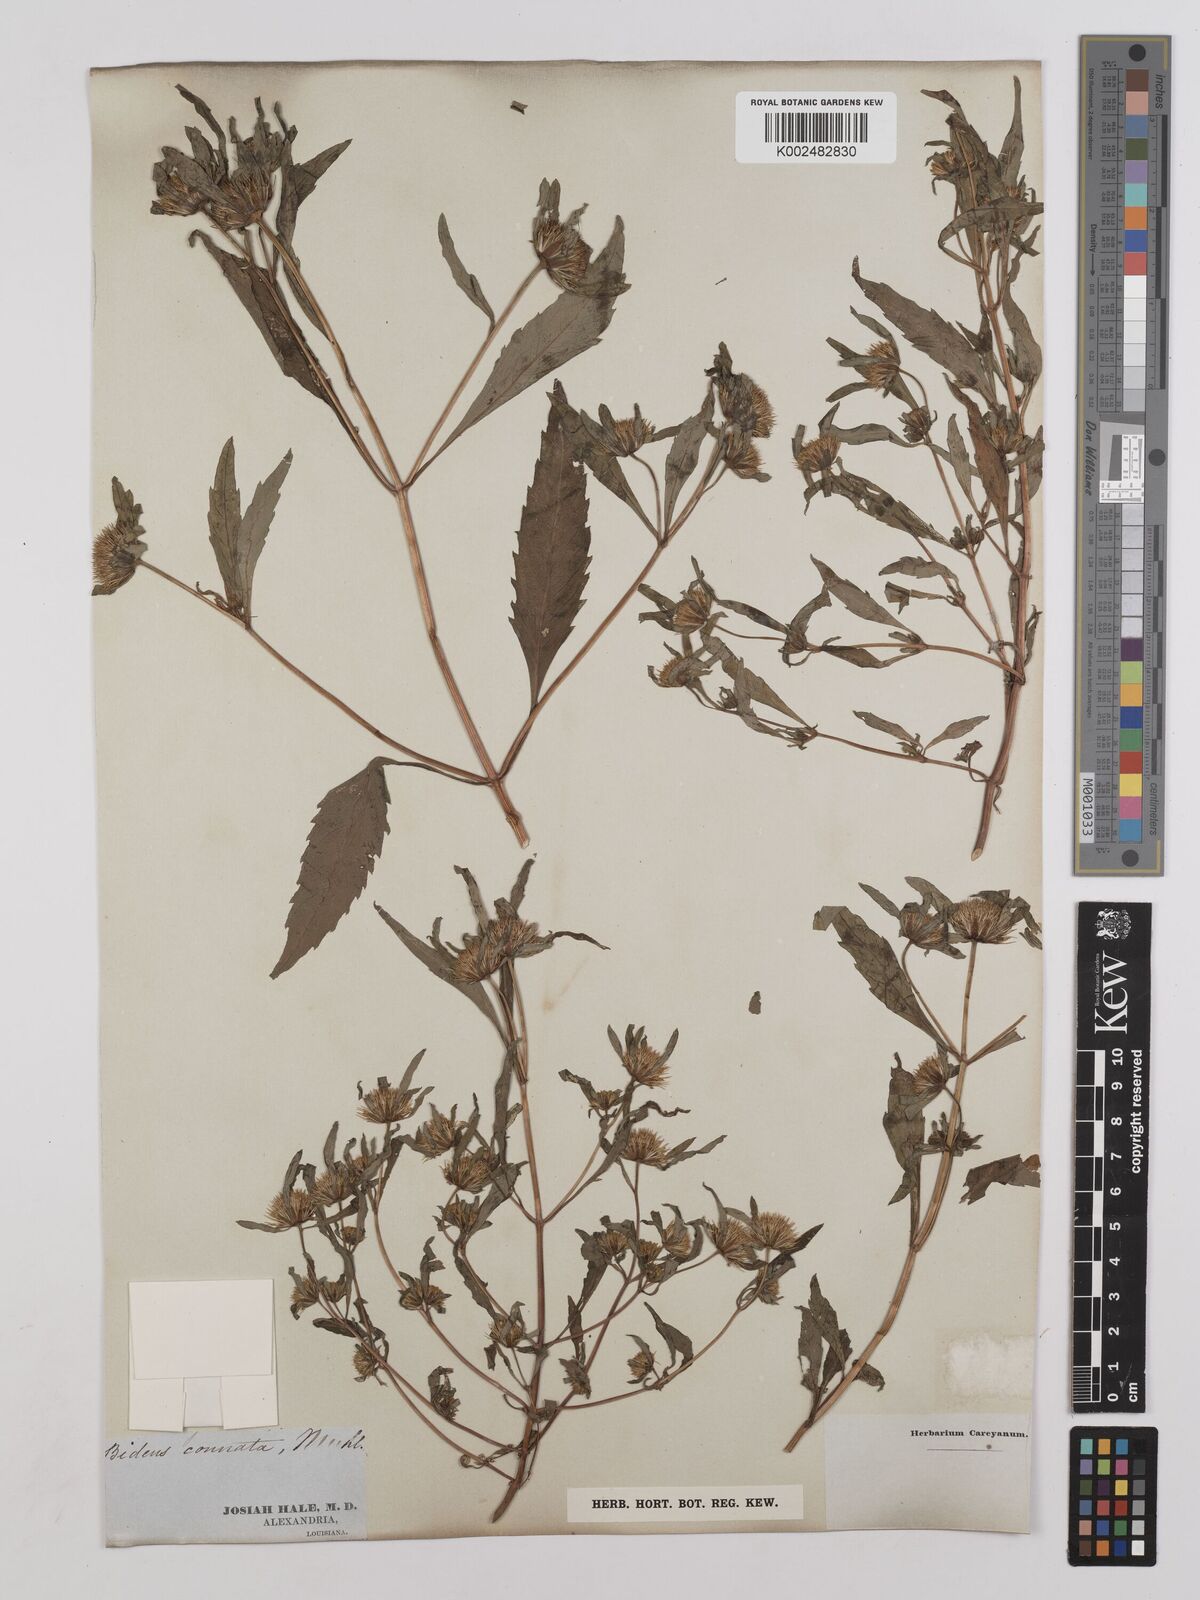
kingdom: Plantae
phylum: Tracheophyta
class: Magnoliopsida
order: Asterales
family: Asteraceae
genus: Bidens
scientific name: Bidens connata
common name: London bur-marigold
